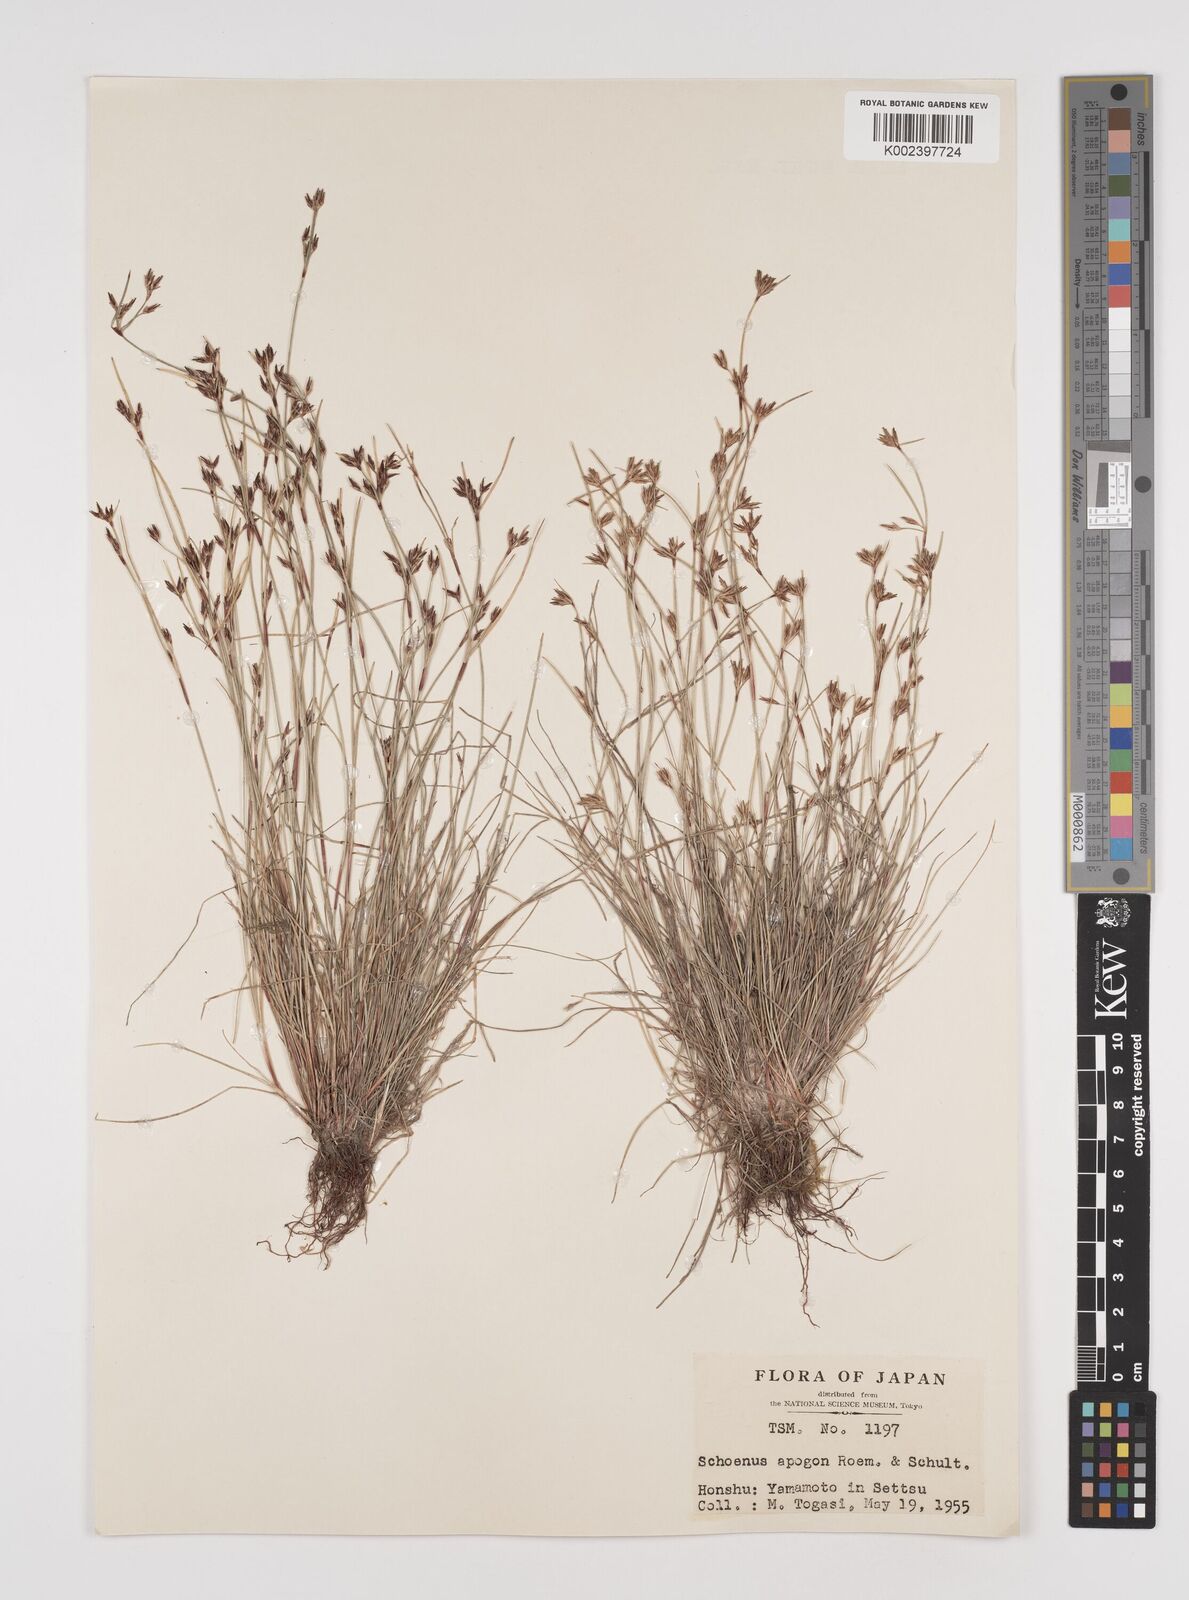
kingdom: Plantae
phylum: Tracheophyta
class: Liliopsida
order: Poales
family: Cyperaceae
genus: Schoenus
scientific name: Schoenus apogon
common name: Smooth bogrush
